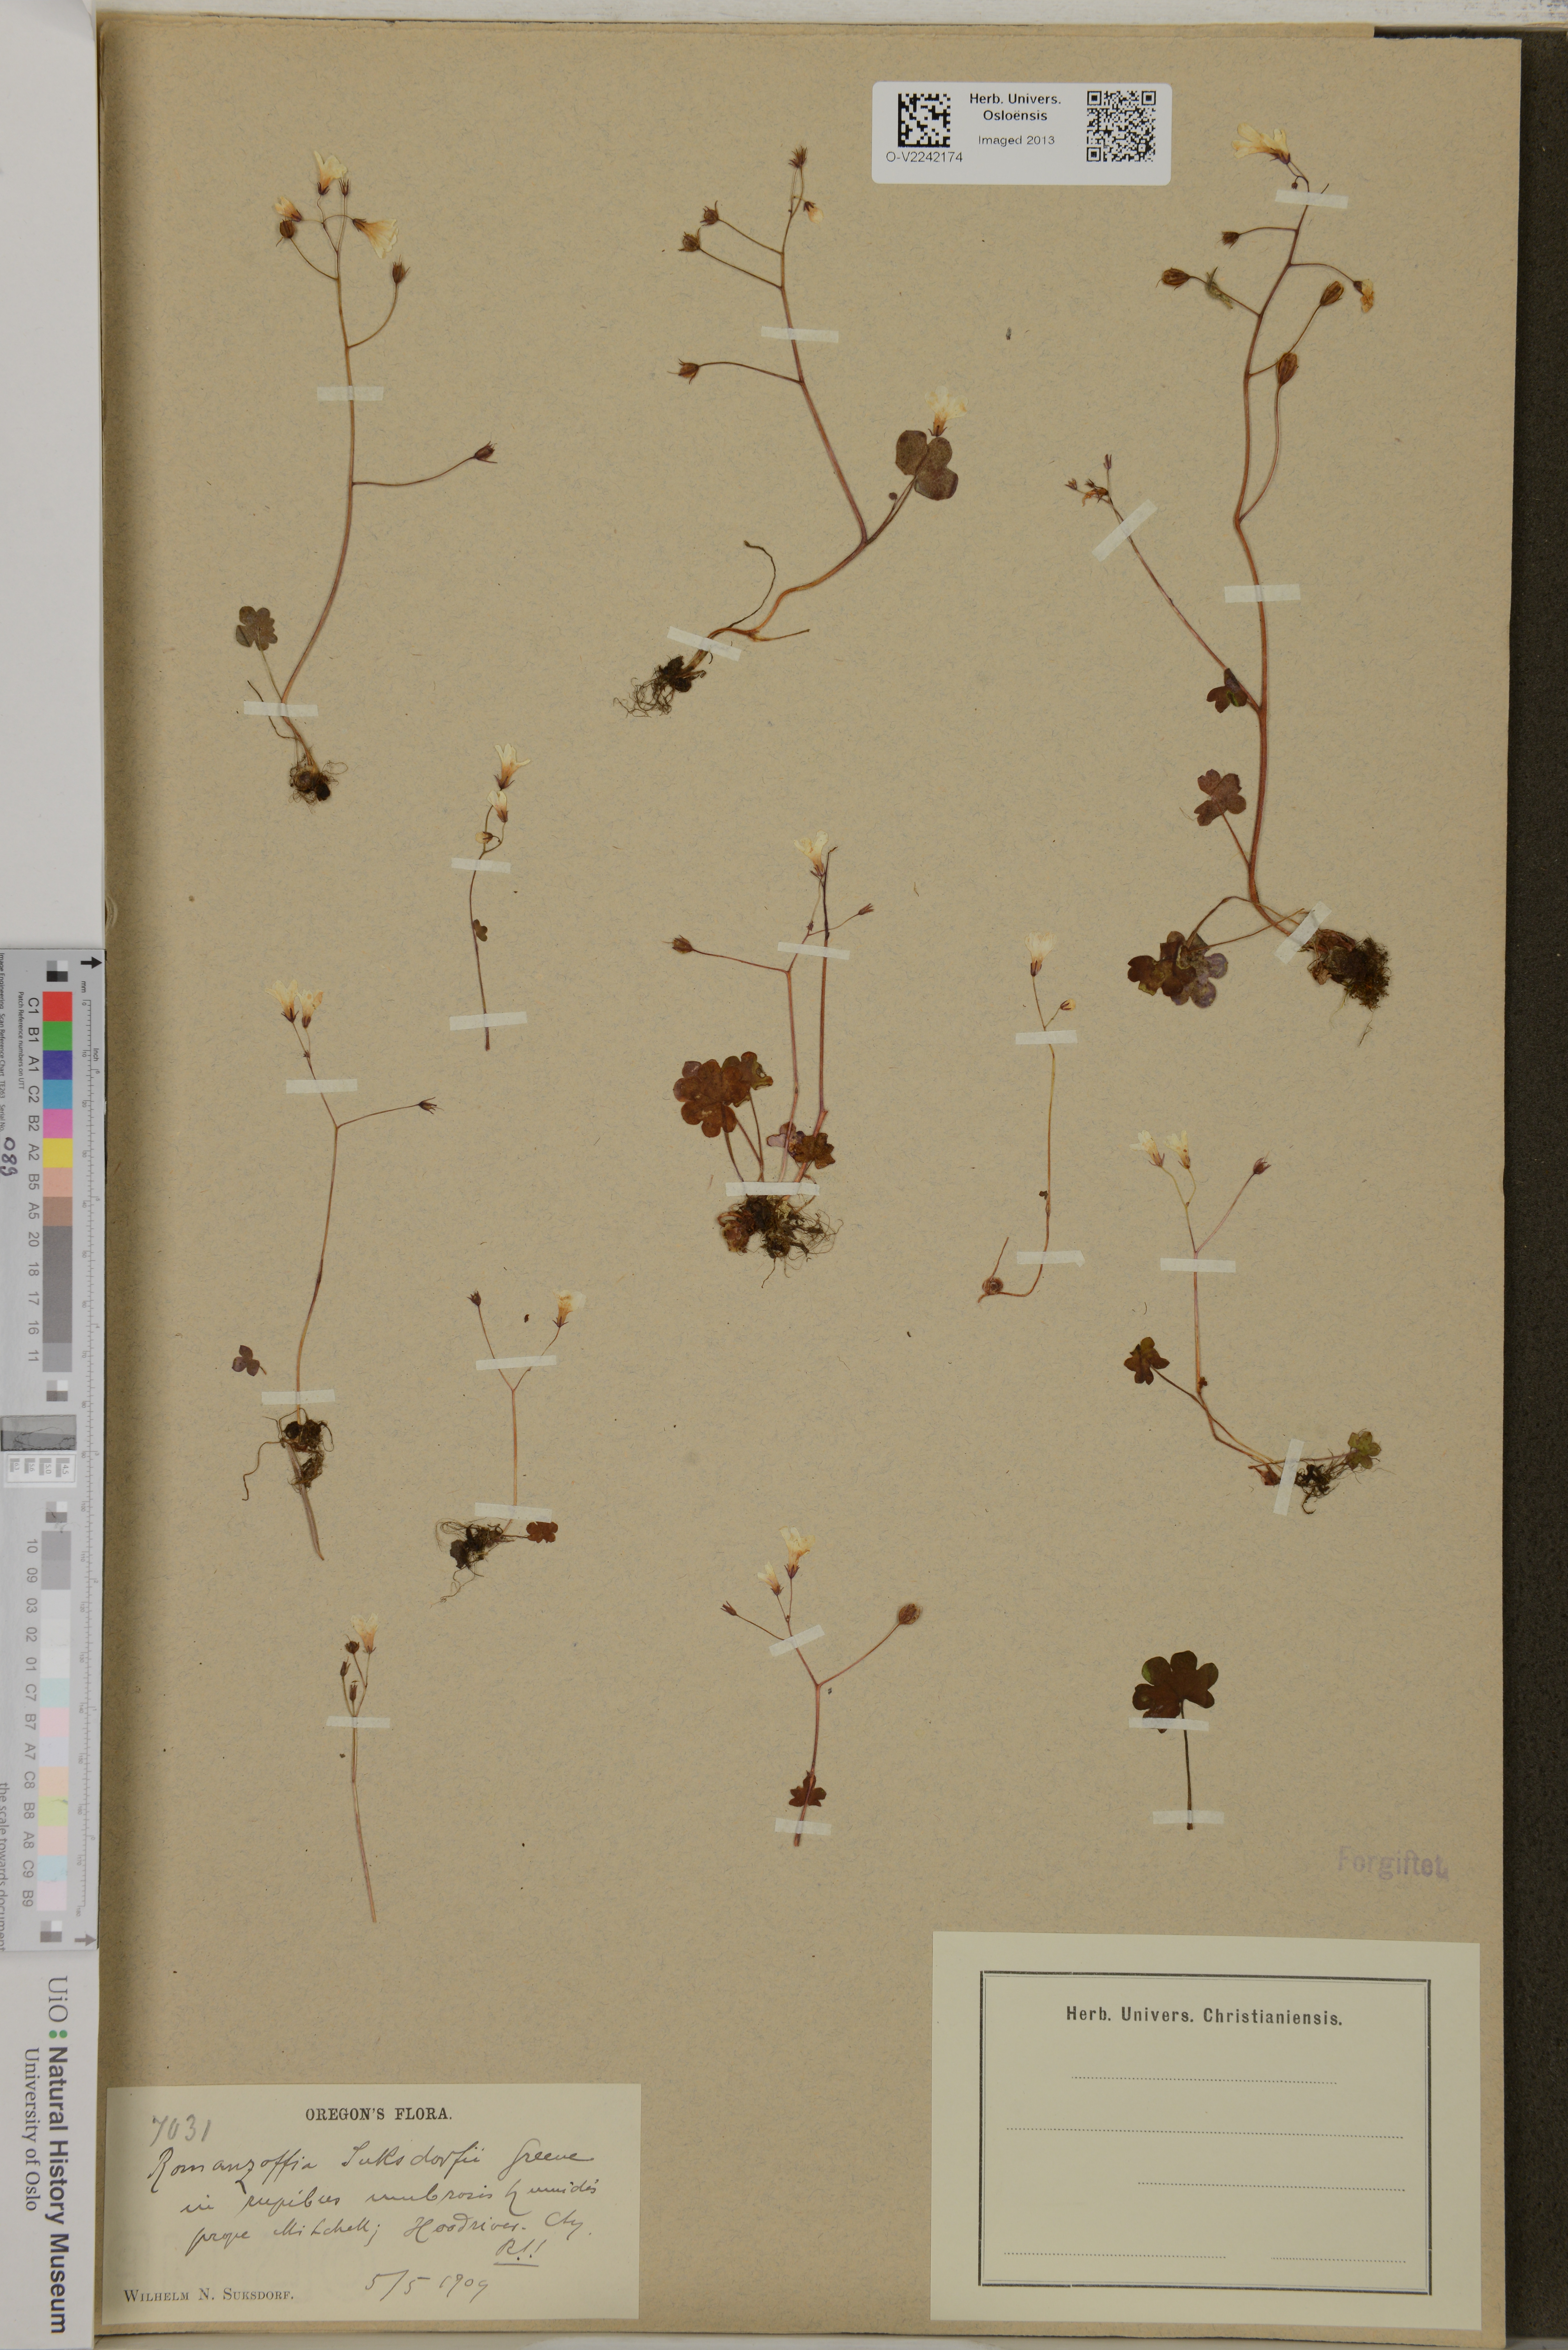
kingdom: Plantae
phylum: Tracheophyta
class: Magnoliopsida
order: Boraginales
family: Hydrophyllaceae
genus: Romanzoffia
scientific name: Romanzoffia
